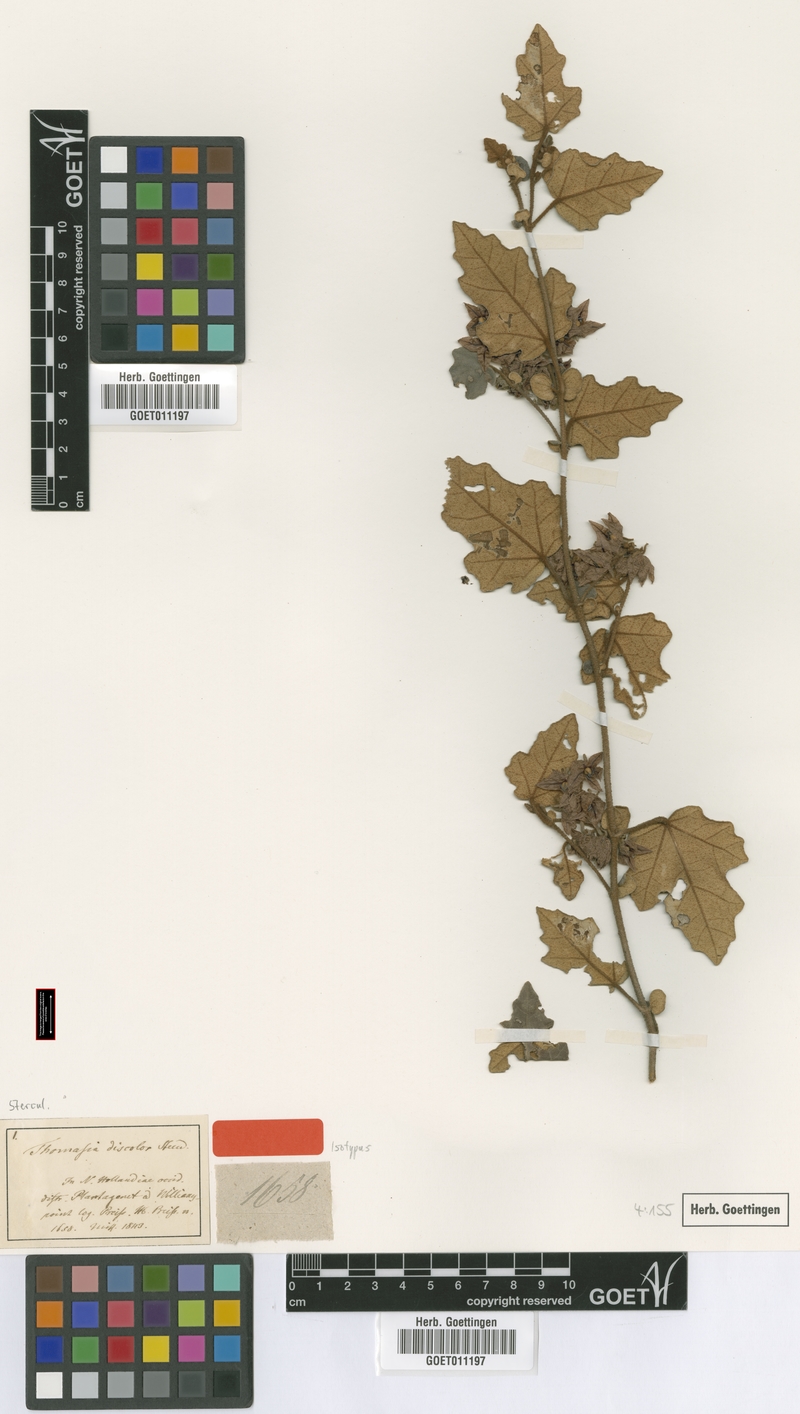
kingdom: Plantae
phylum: Tracheophyta
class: Magnoliopsida
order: Malvales
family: Malvaceae
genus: Thomasia
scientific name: Thomasia discolor
